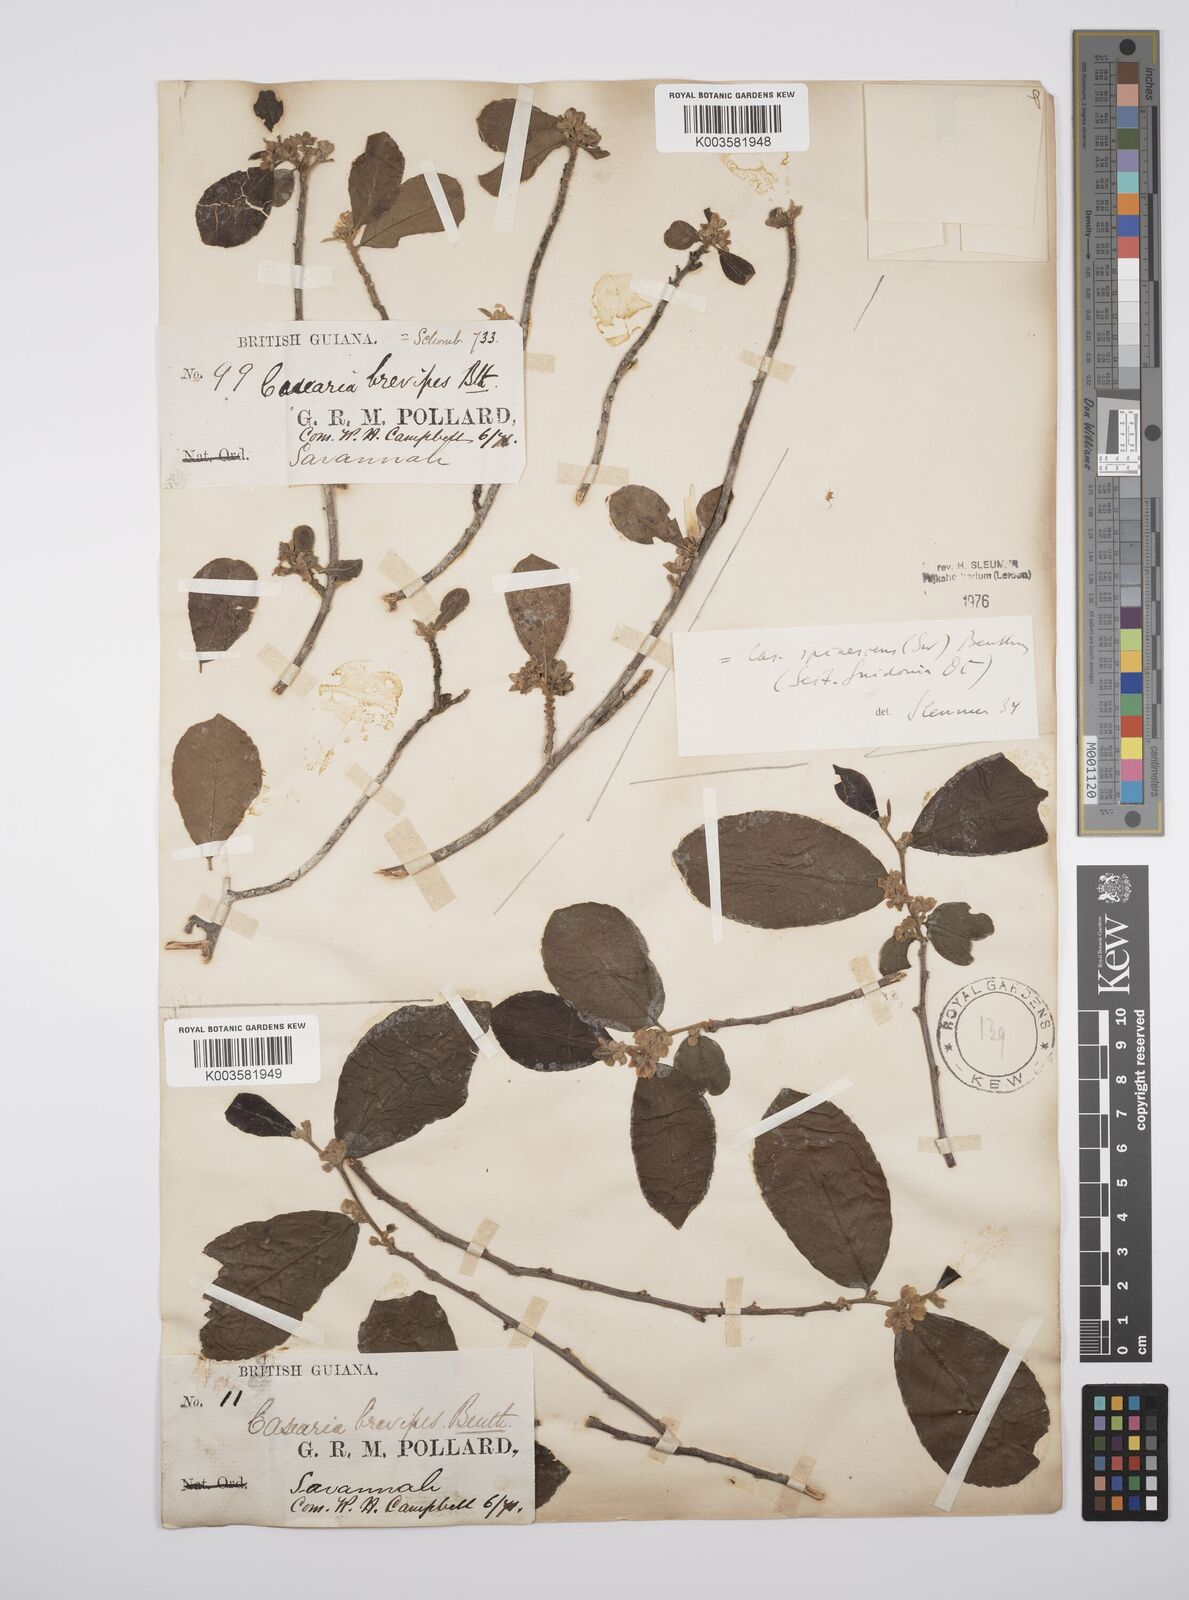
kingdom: Plantae
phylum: Tracheophyta
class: Magnoliopsida
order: Malpighiales
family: Salicaceae
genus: Casearia
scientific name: Casearia spinescens
